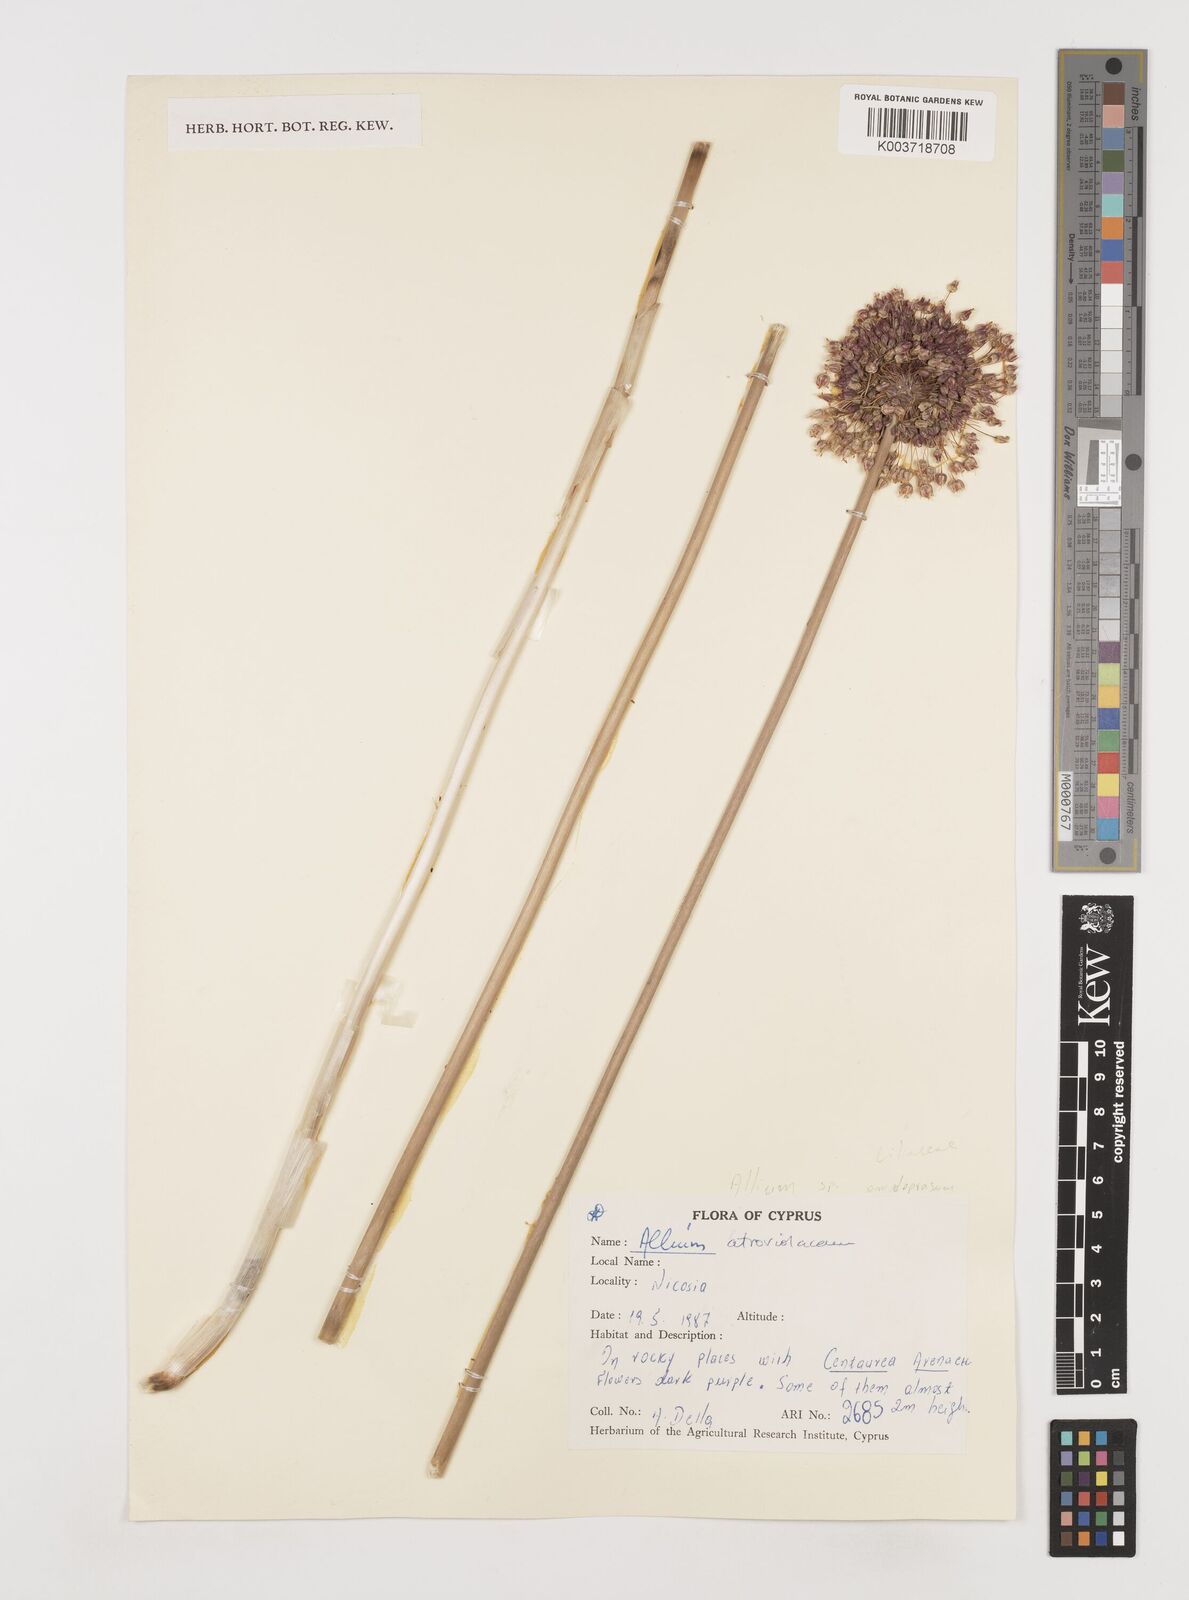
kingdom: Plantae
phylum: Tracheophyta
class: Liliopsida
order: Asparagales
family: Amaryllidaceae
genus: Allium
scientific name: Allium
